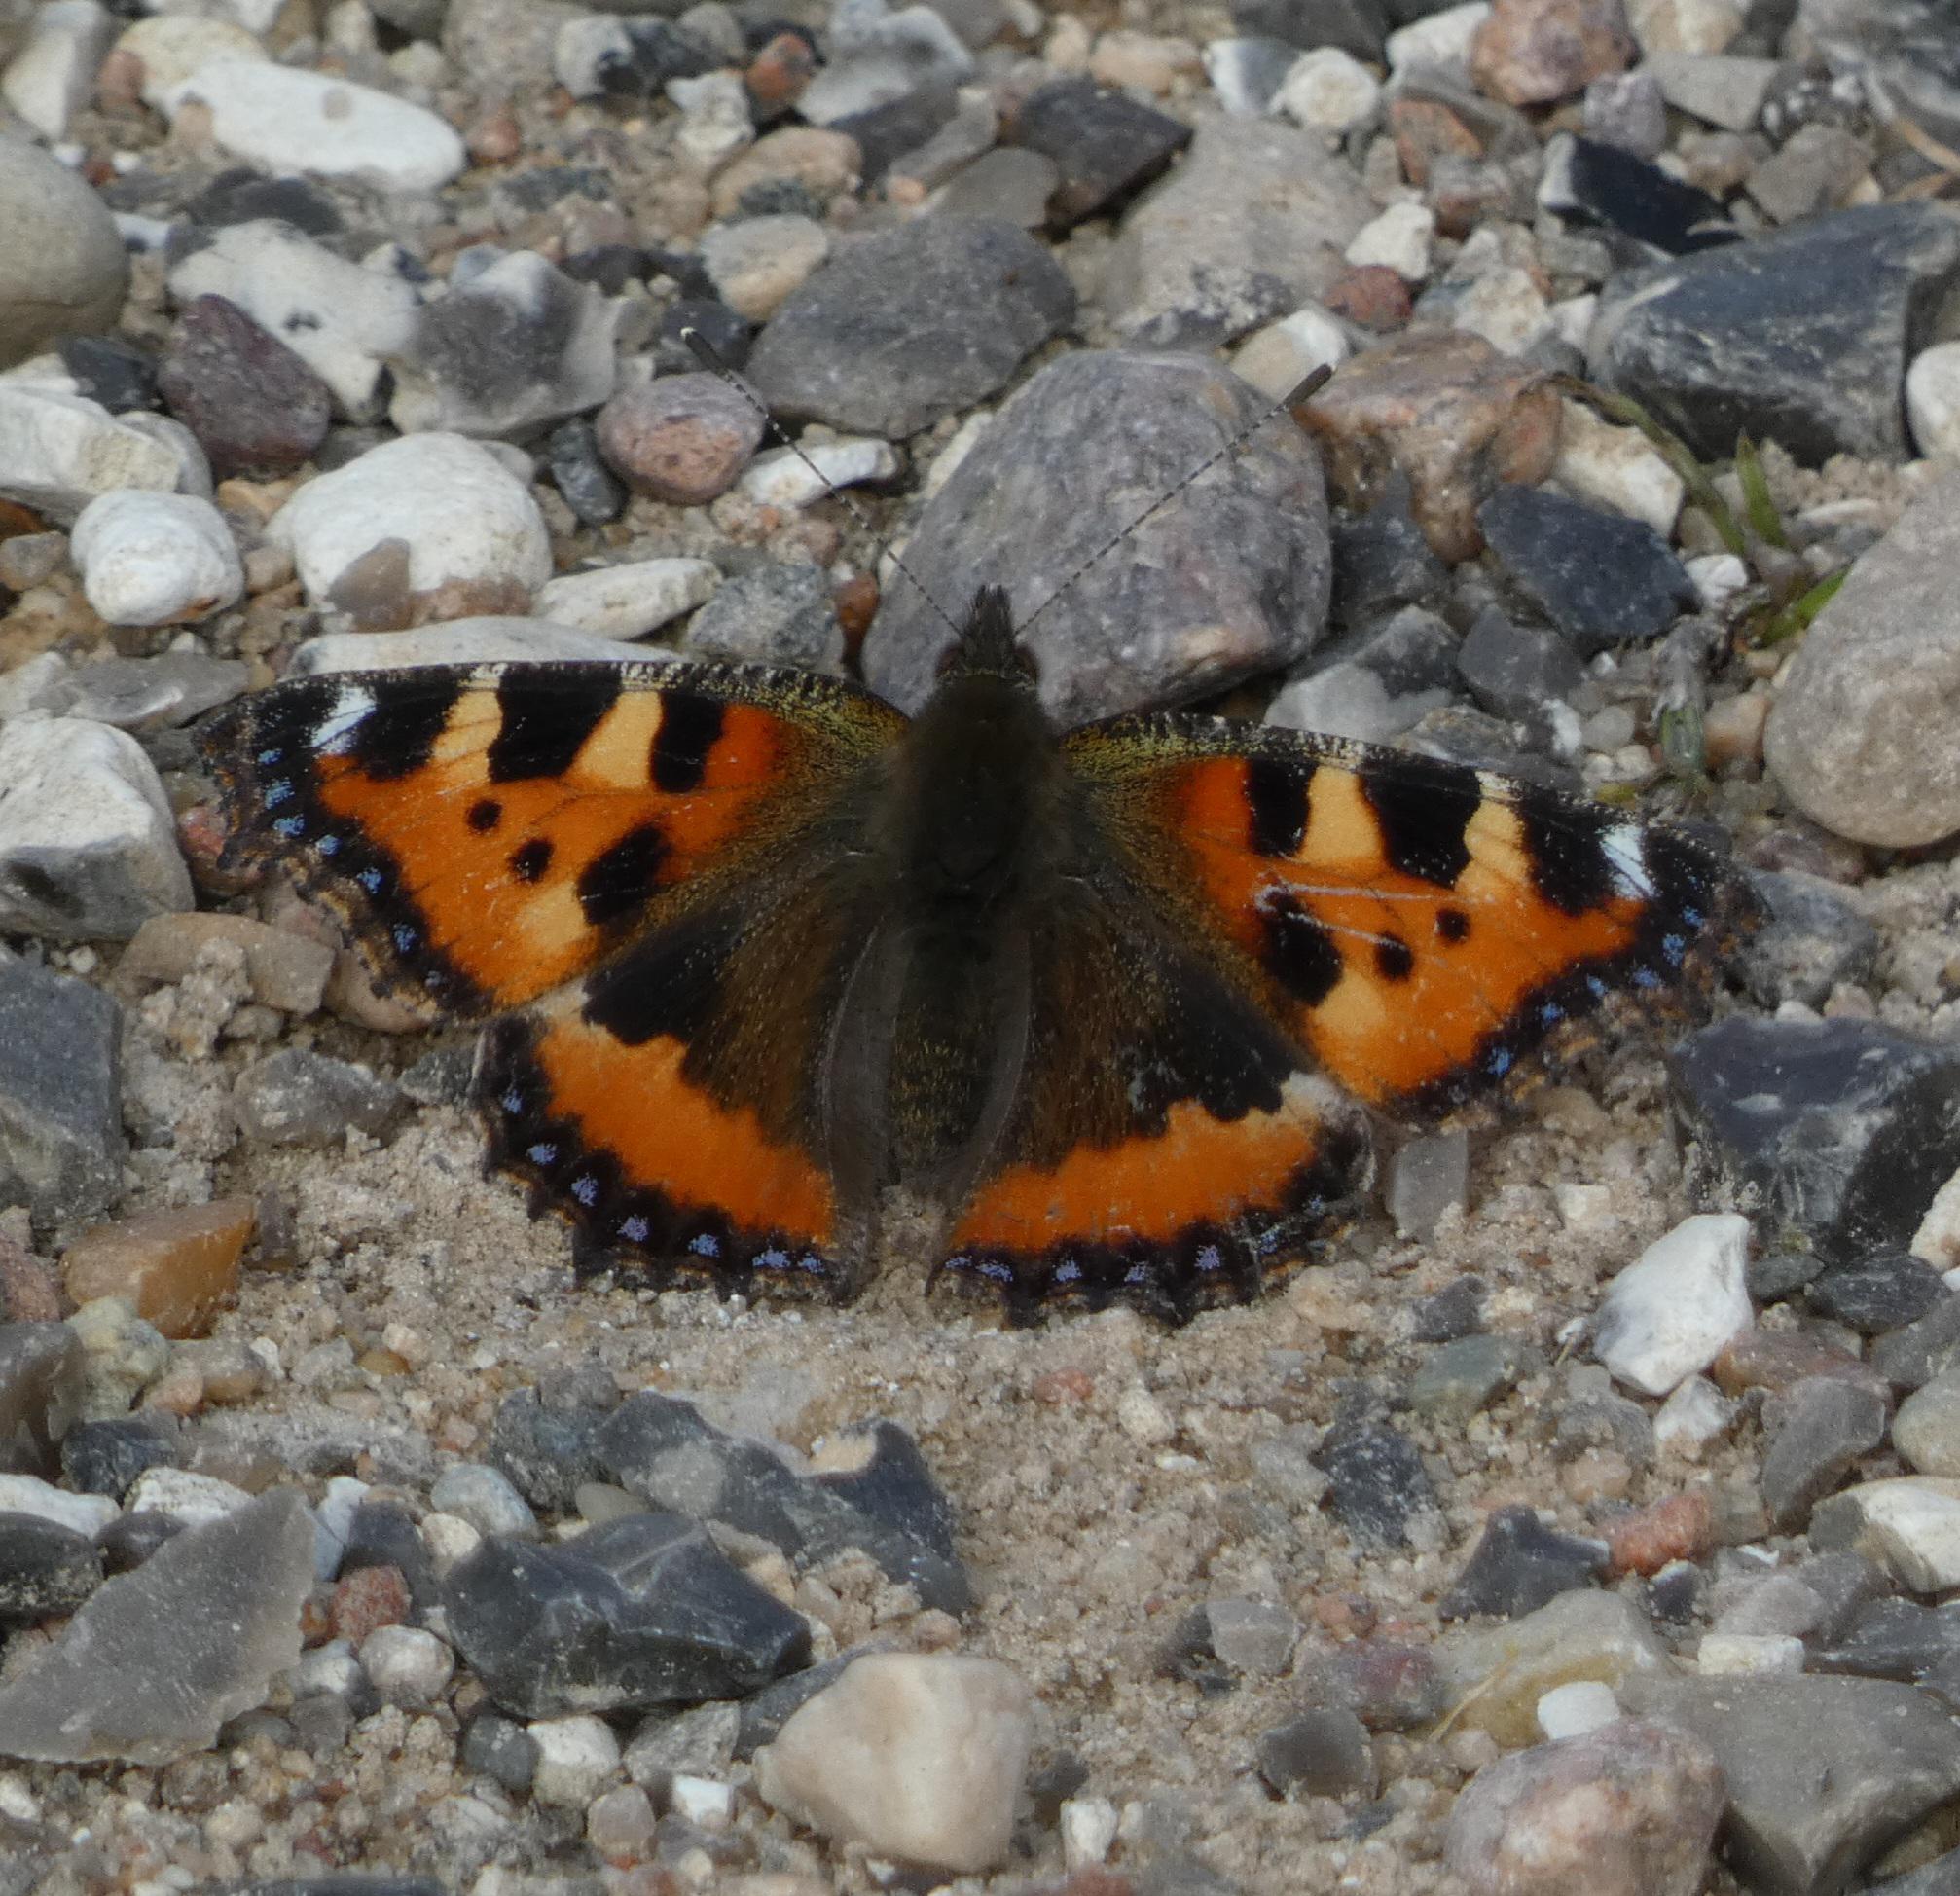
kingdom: Animalia
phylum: Arthropoda
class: Insecta
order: Lepidoptera
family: Nymphalidae
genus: Aglais
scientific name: Aglais urticae
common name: Nældens takvinge
